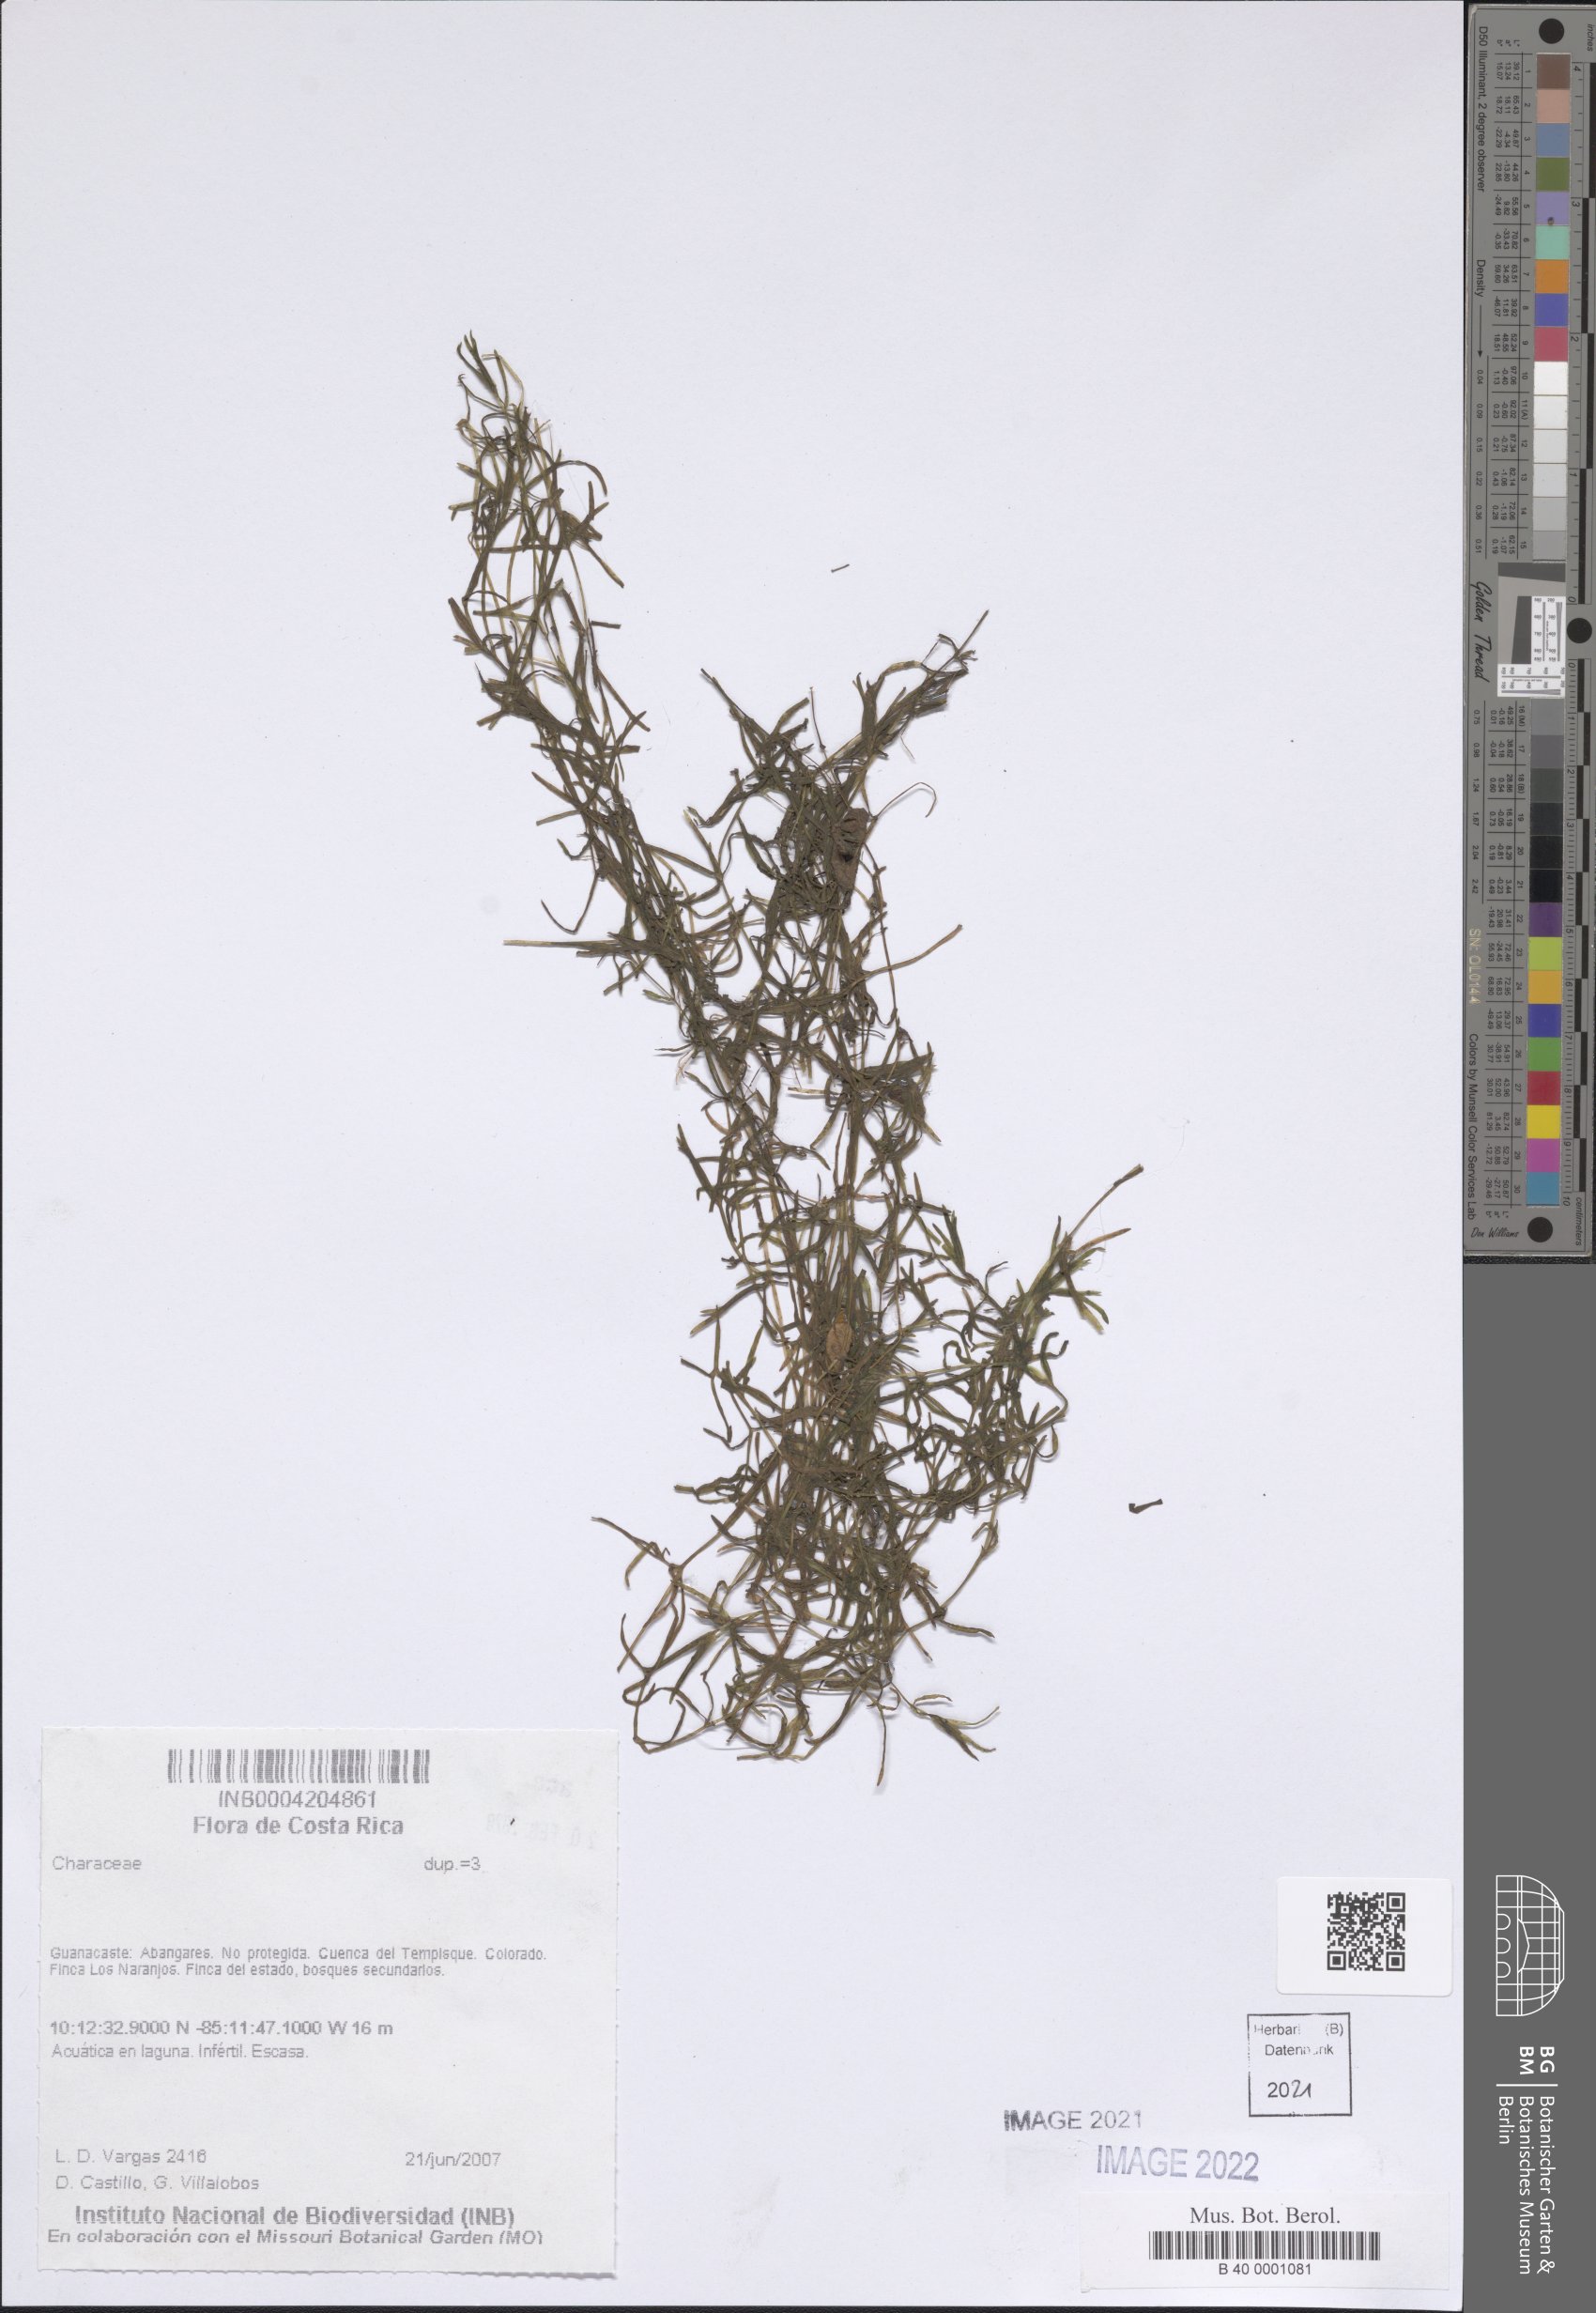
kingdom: Plantae
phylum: Charophyta
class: Charophyceae
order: Charales
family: Characeae
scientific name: Characeae
